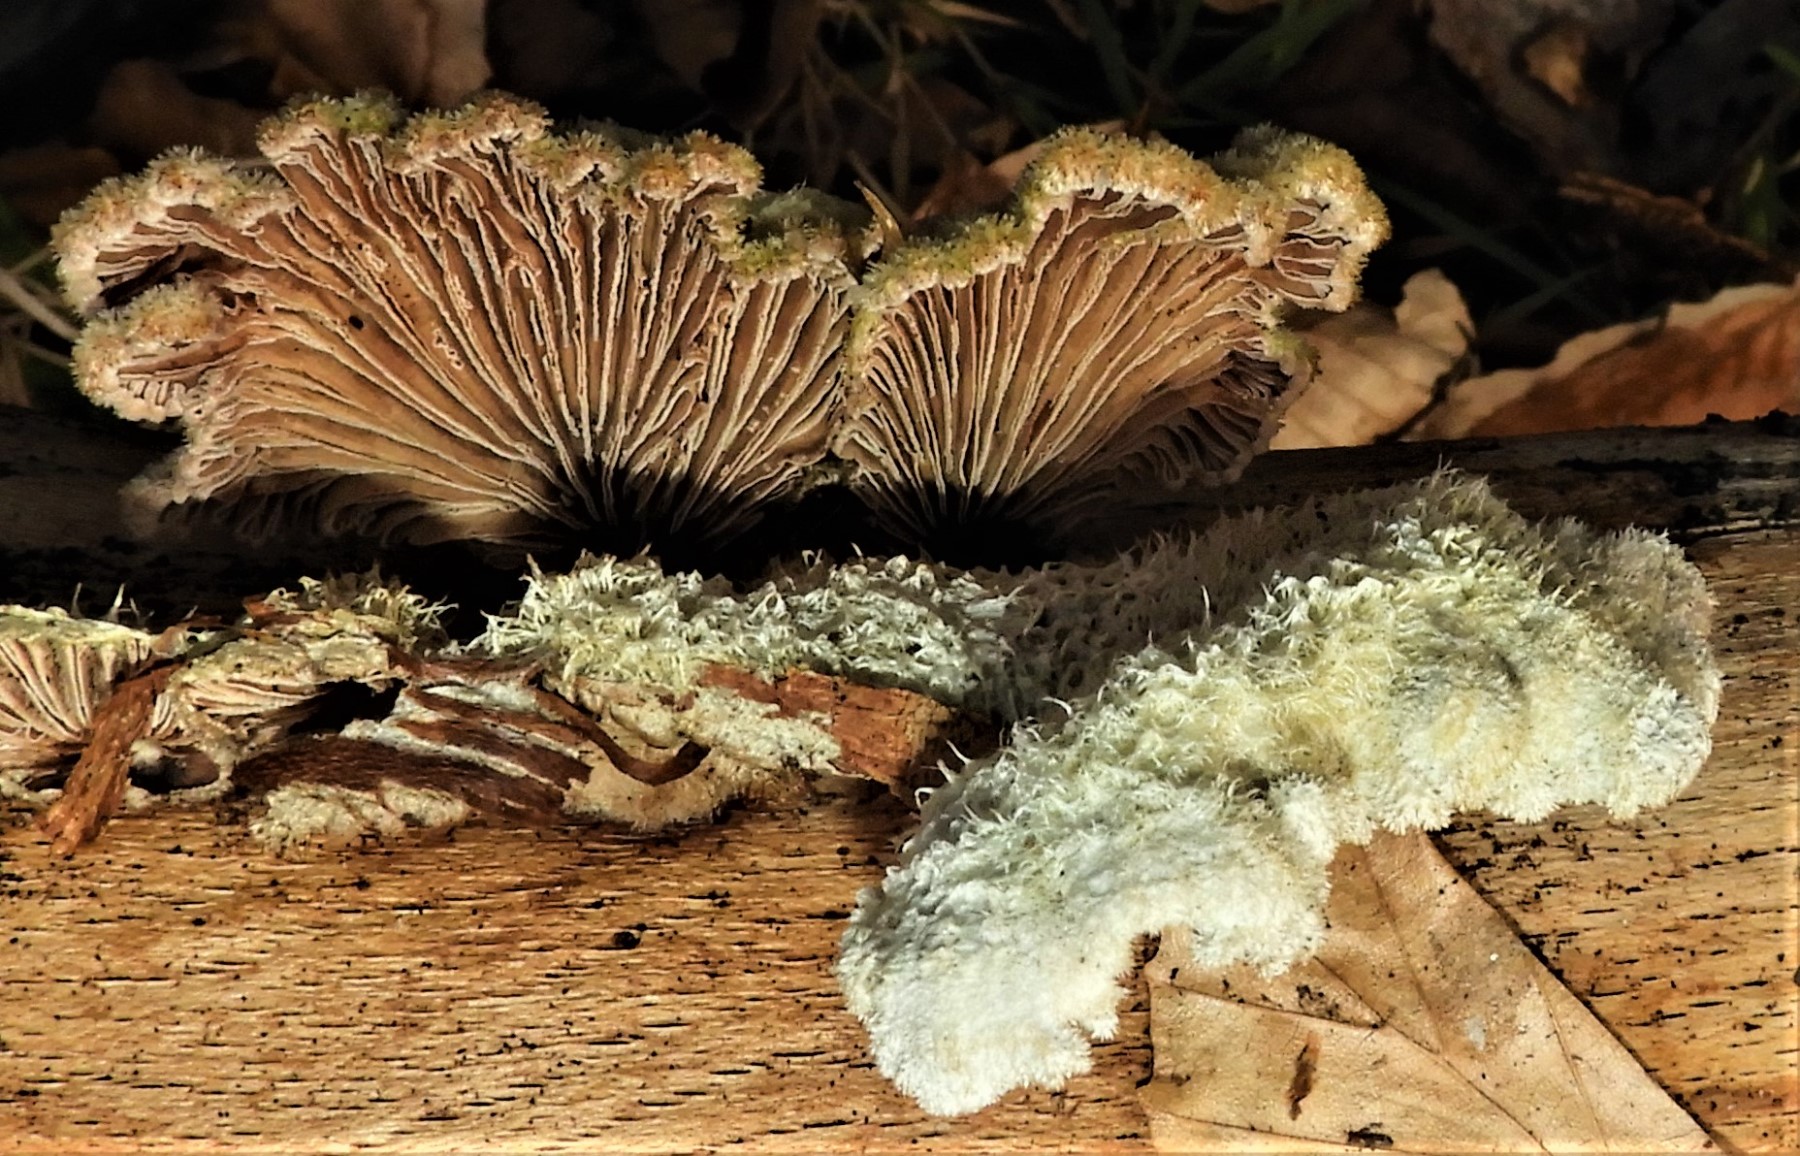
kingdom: Fungi
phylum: Basidiomycota
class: Agaricomycetes
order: Agaricales
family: Schizophyllaceae
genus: Schizophyllum
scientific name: Schizophyllum commune
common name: kløvblad
